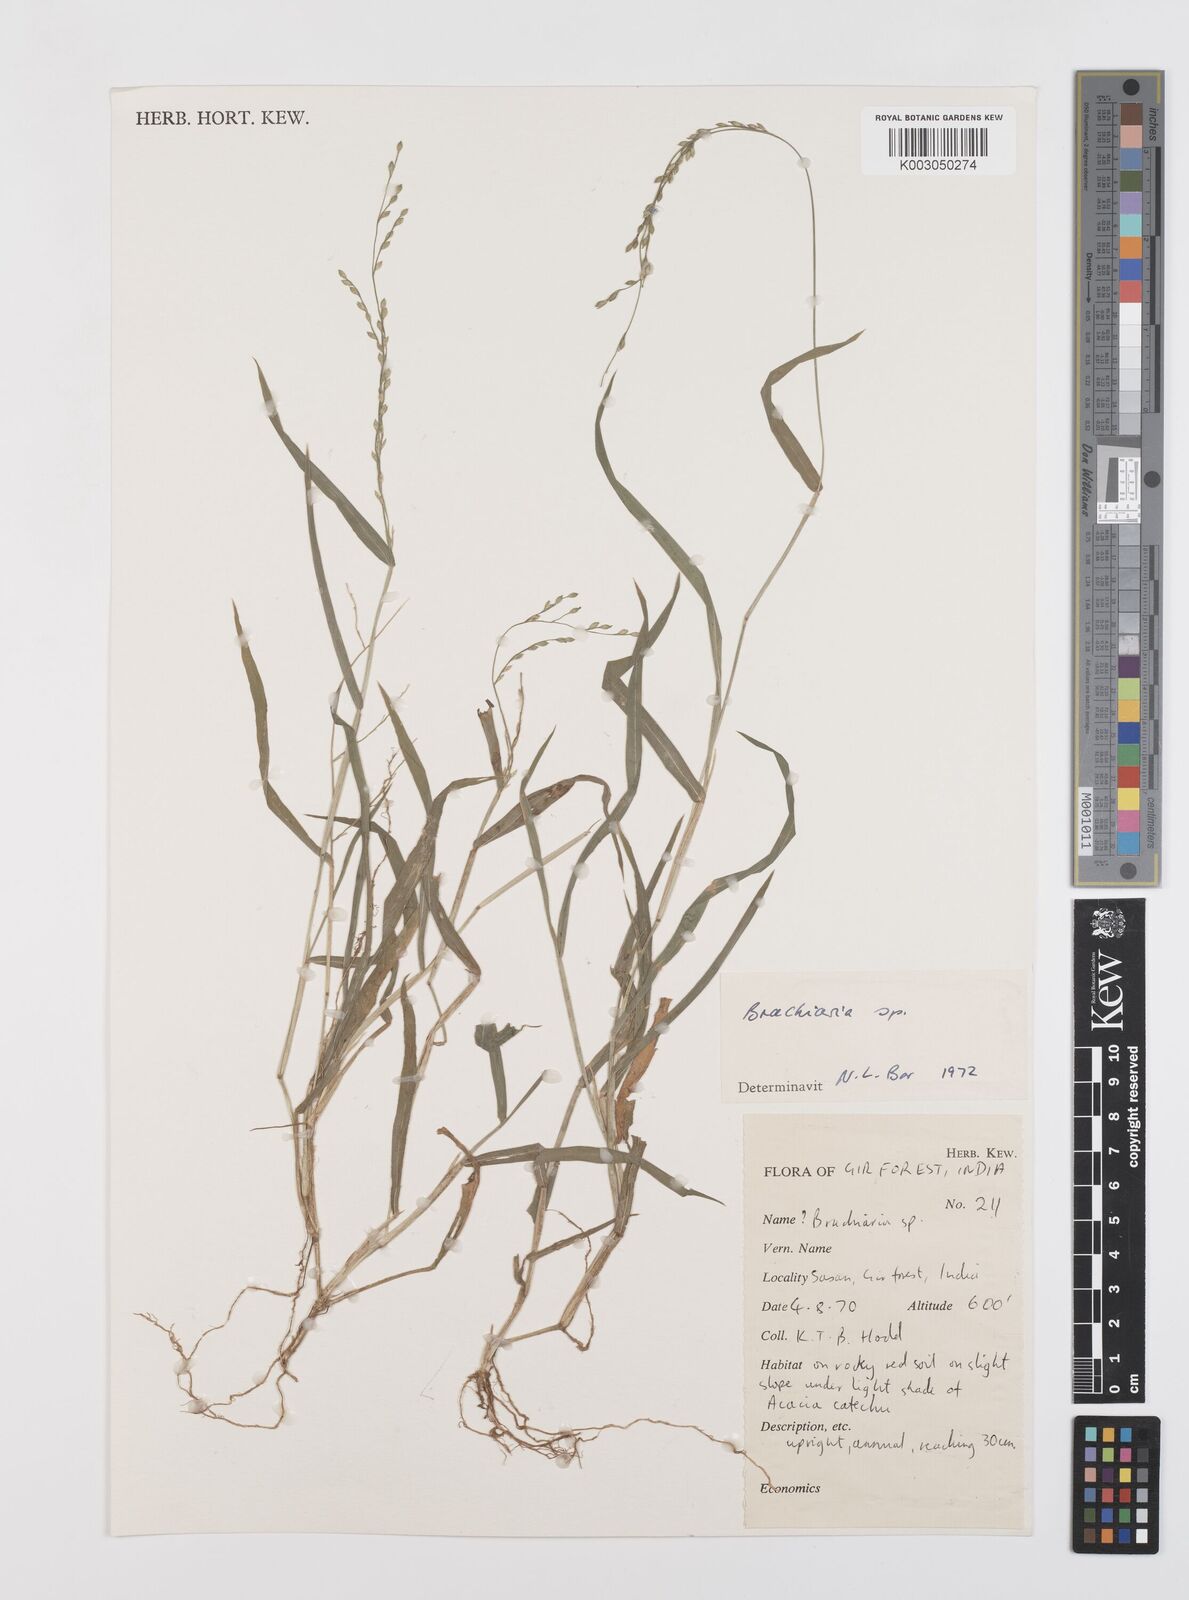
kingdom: Plantae
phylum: Tracheophyta
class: Liliopsida
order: Poales
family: Poaceae
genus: Urochloa
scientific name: Urochloa ramosa
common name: Browntop millet
